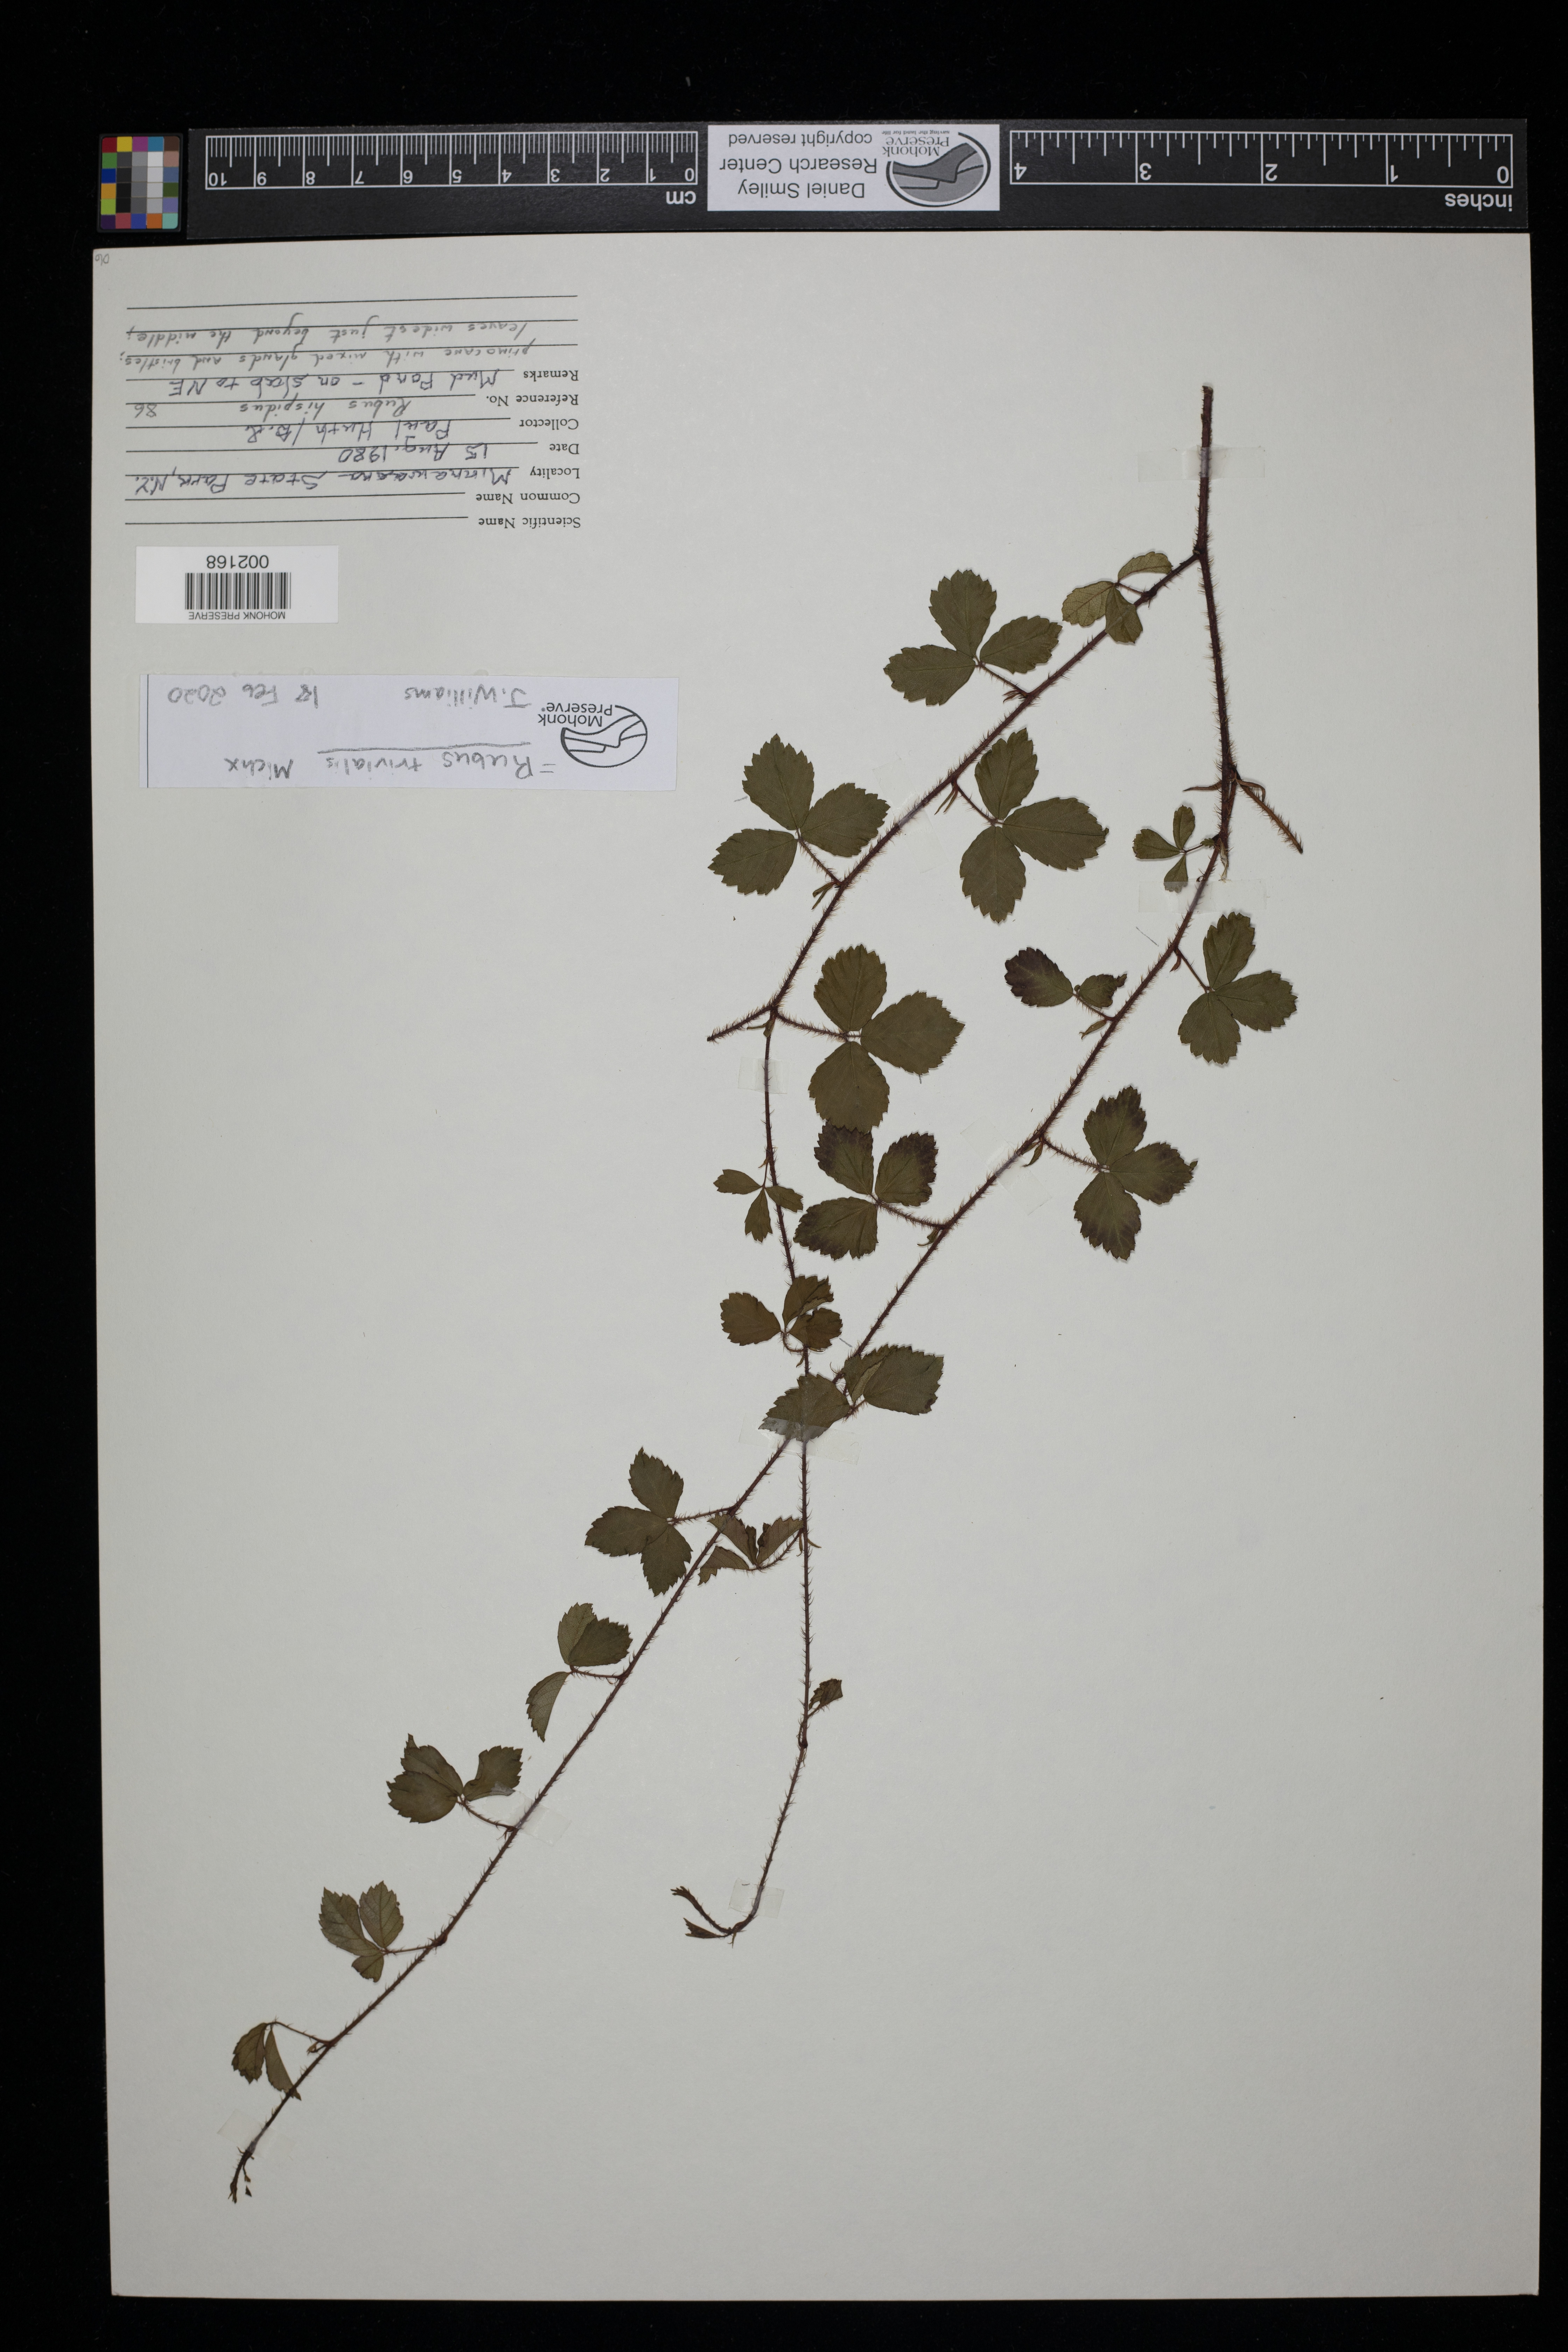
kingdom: Plantae
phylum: Tracheophyta
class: Magnoliopsida
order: Rosales
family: Rosaceae
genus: Rubus
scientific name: Rubus trivialis
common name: Southern dewberry
